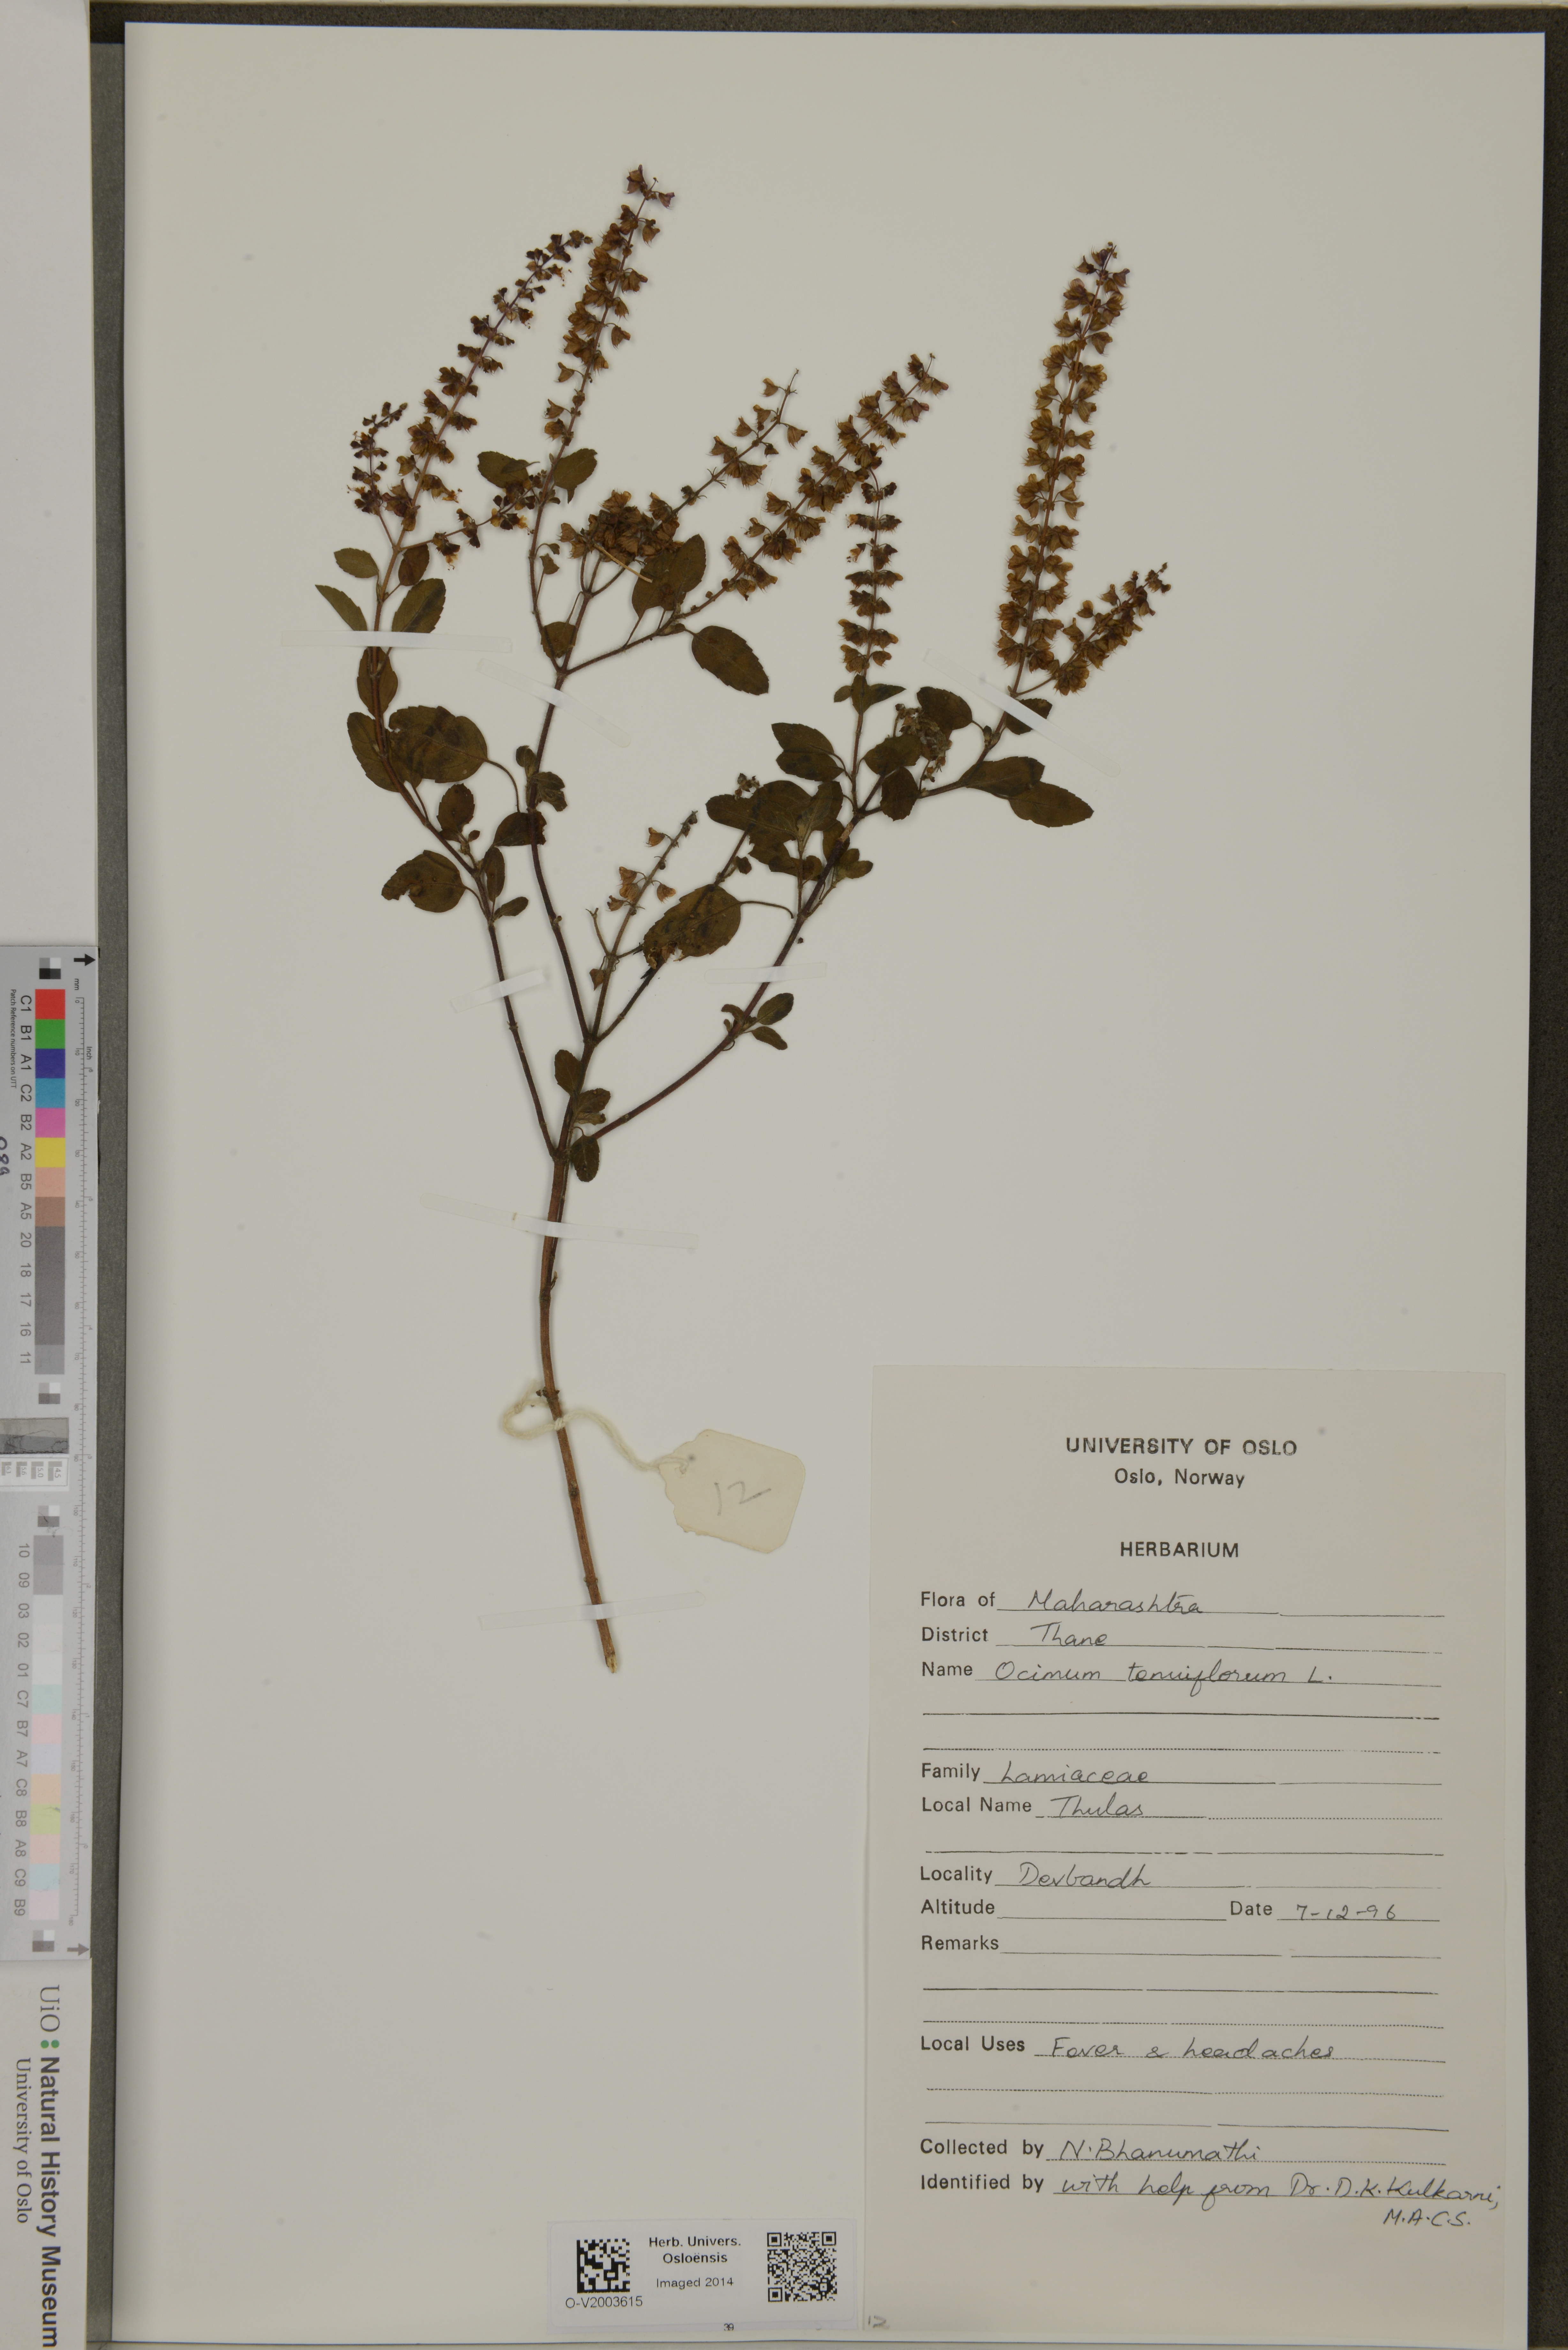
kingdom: Plantae
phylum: Tracheophyta
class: Magnoliopsida
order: Lamiales
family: Lamiaceae
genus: Ocimum
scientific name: Ocimum tenuiflorum
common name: Sacred basil
